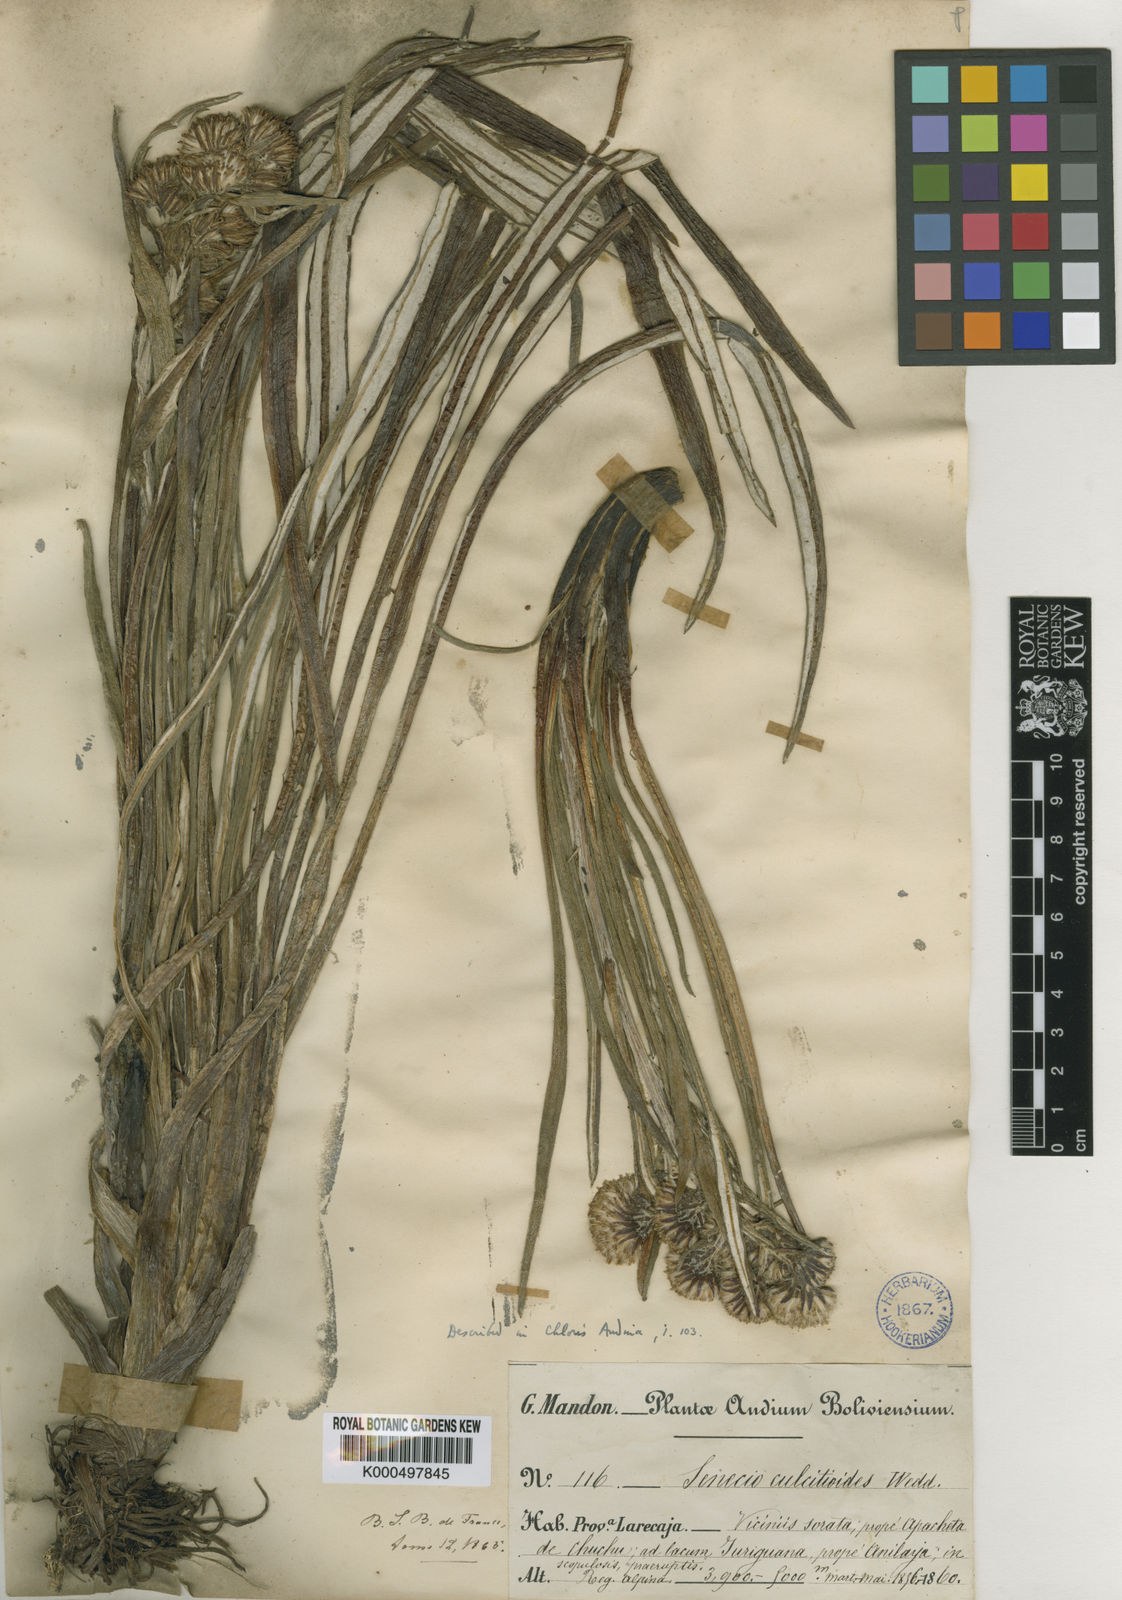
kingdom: Plantae
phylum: Tracheophyta
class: Magnoliopsida
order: Asterales
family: Asteraceae
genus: Senecio
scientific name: Senecio comosus
